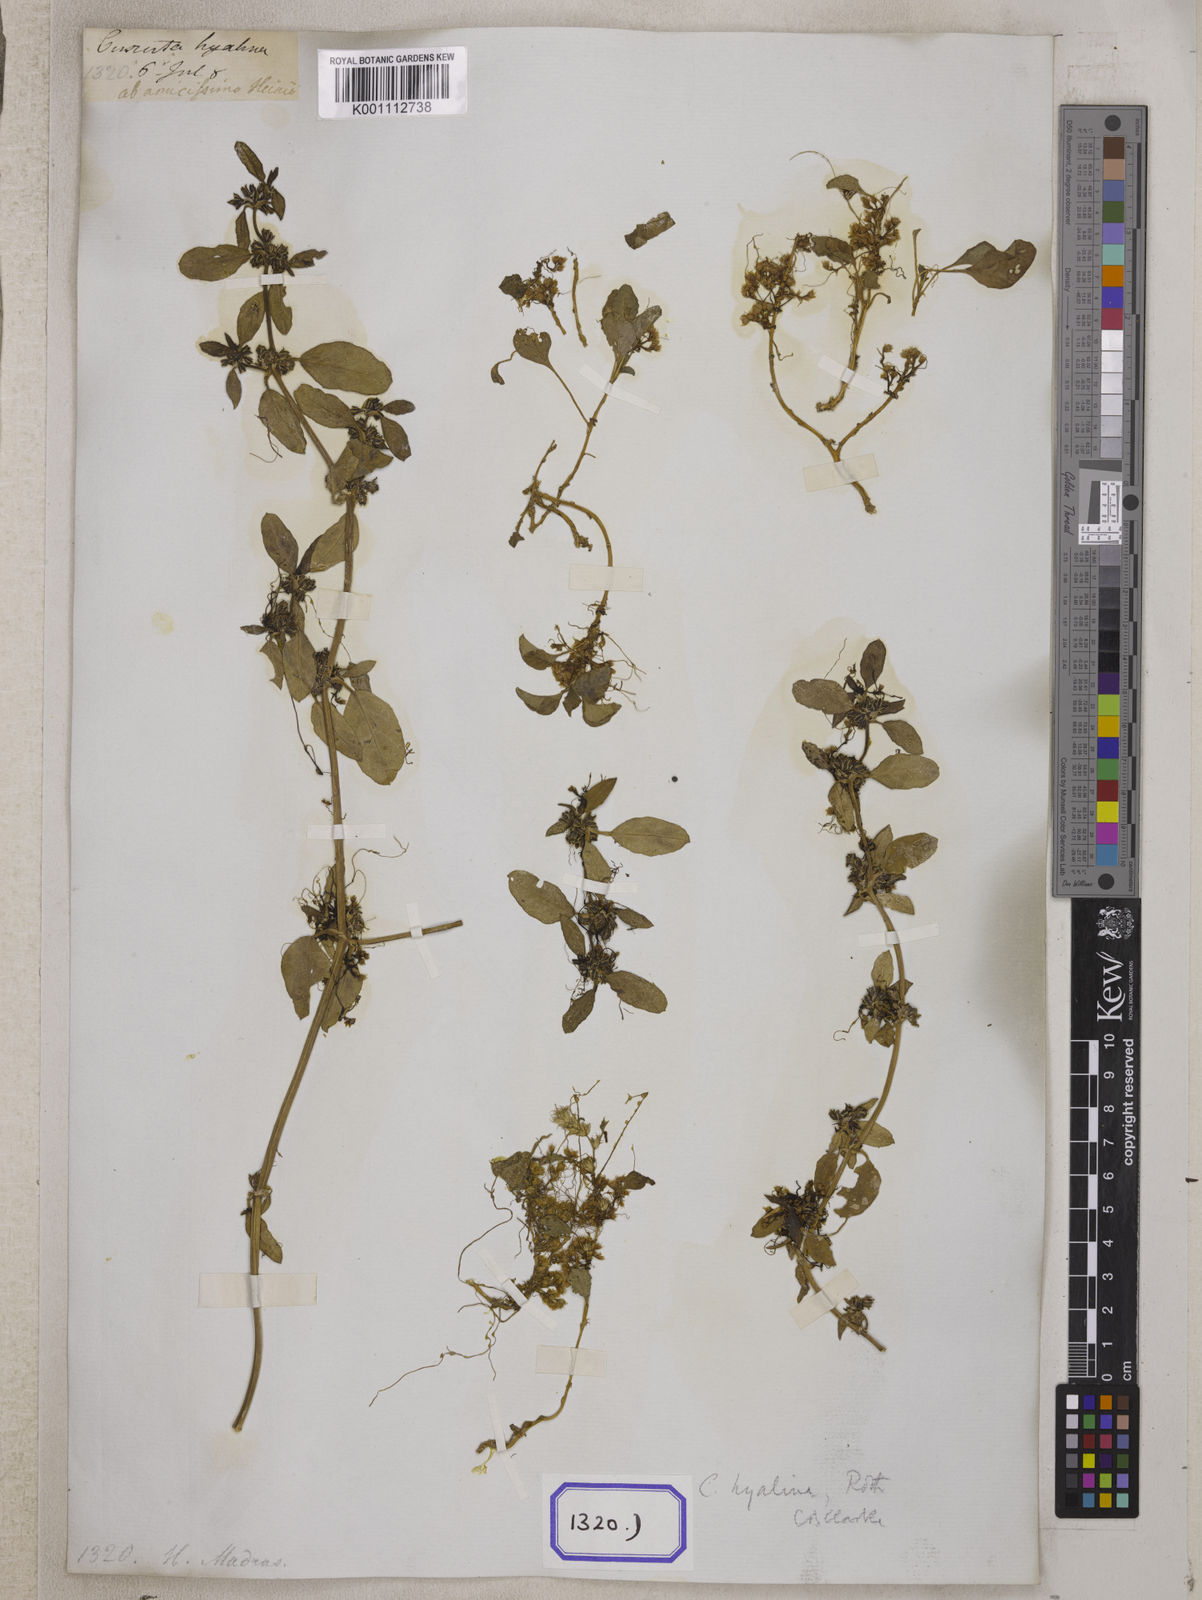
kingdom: Plantae
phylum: Tracheophyta
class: Magnoliopsida
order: Solanales
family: Convolvulaceae
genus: Cuscuta
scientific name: Cuscuta chinensis
